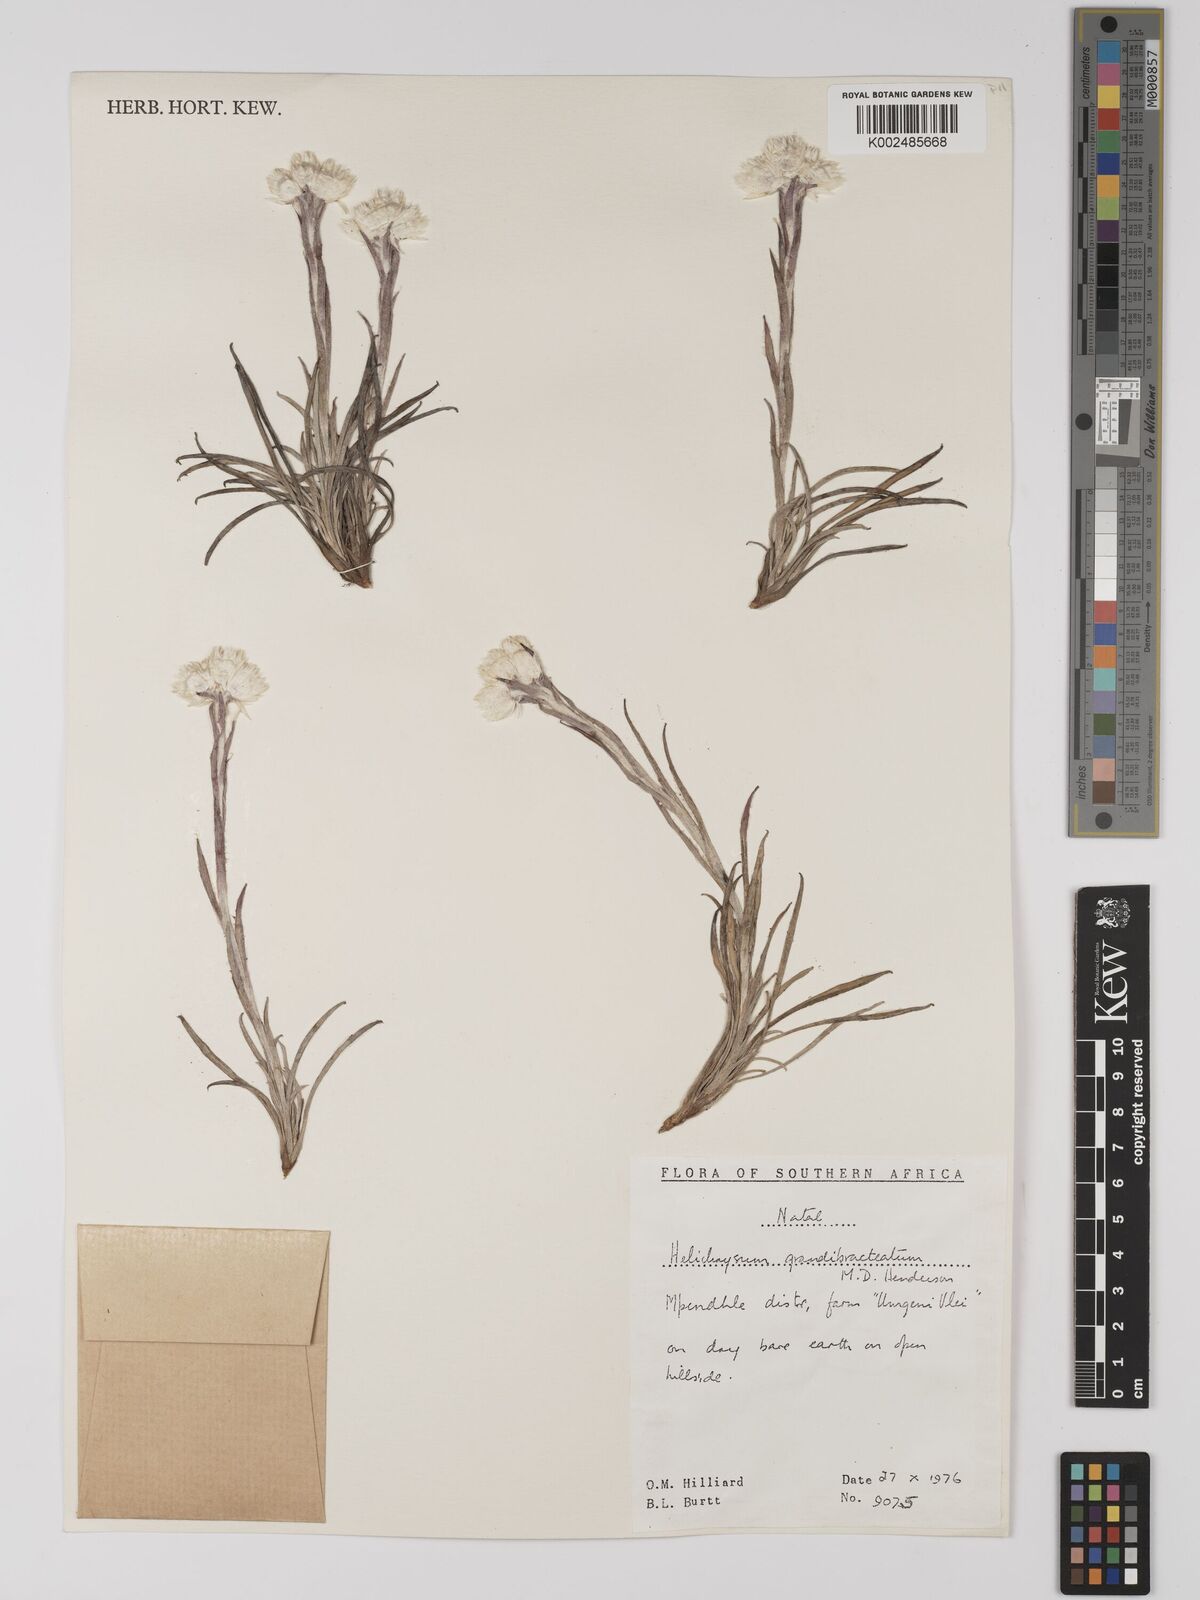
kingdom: Plantae
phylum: Tracheophyta
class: Magnoliopsida
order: Asterales
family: Asteraceae
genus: Helichrysum
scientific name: Helichrysum grandibracteatum
